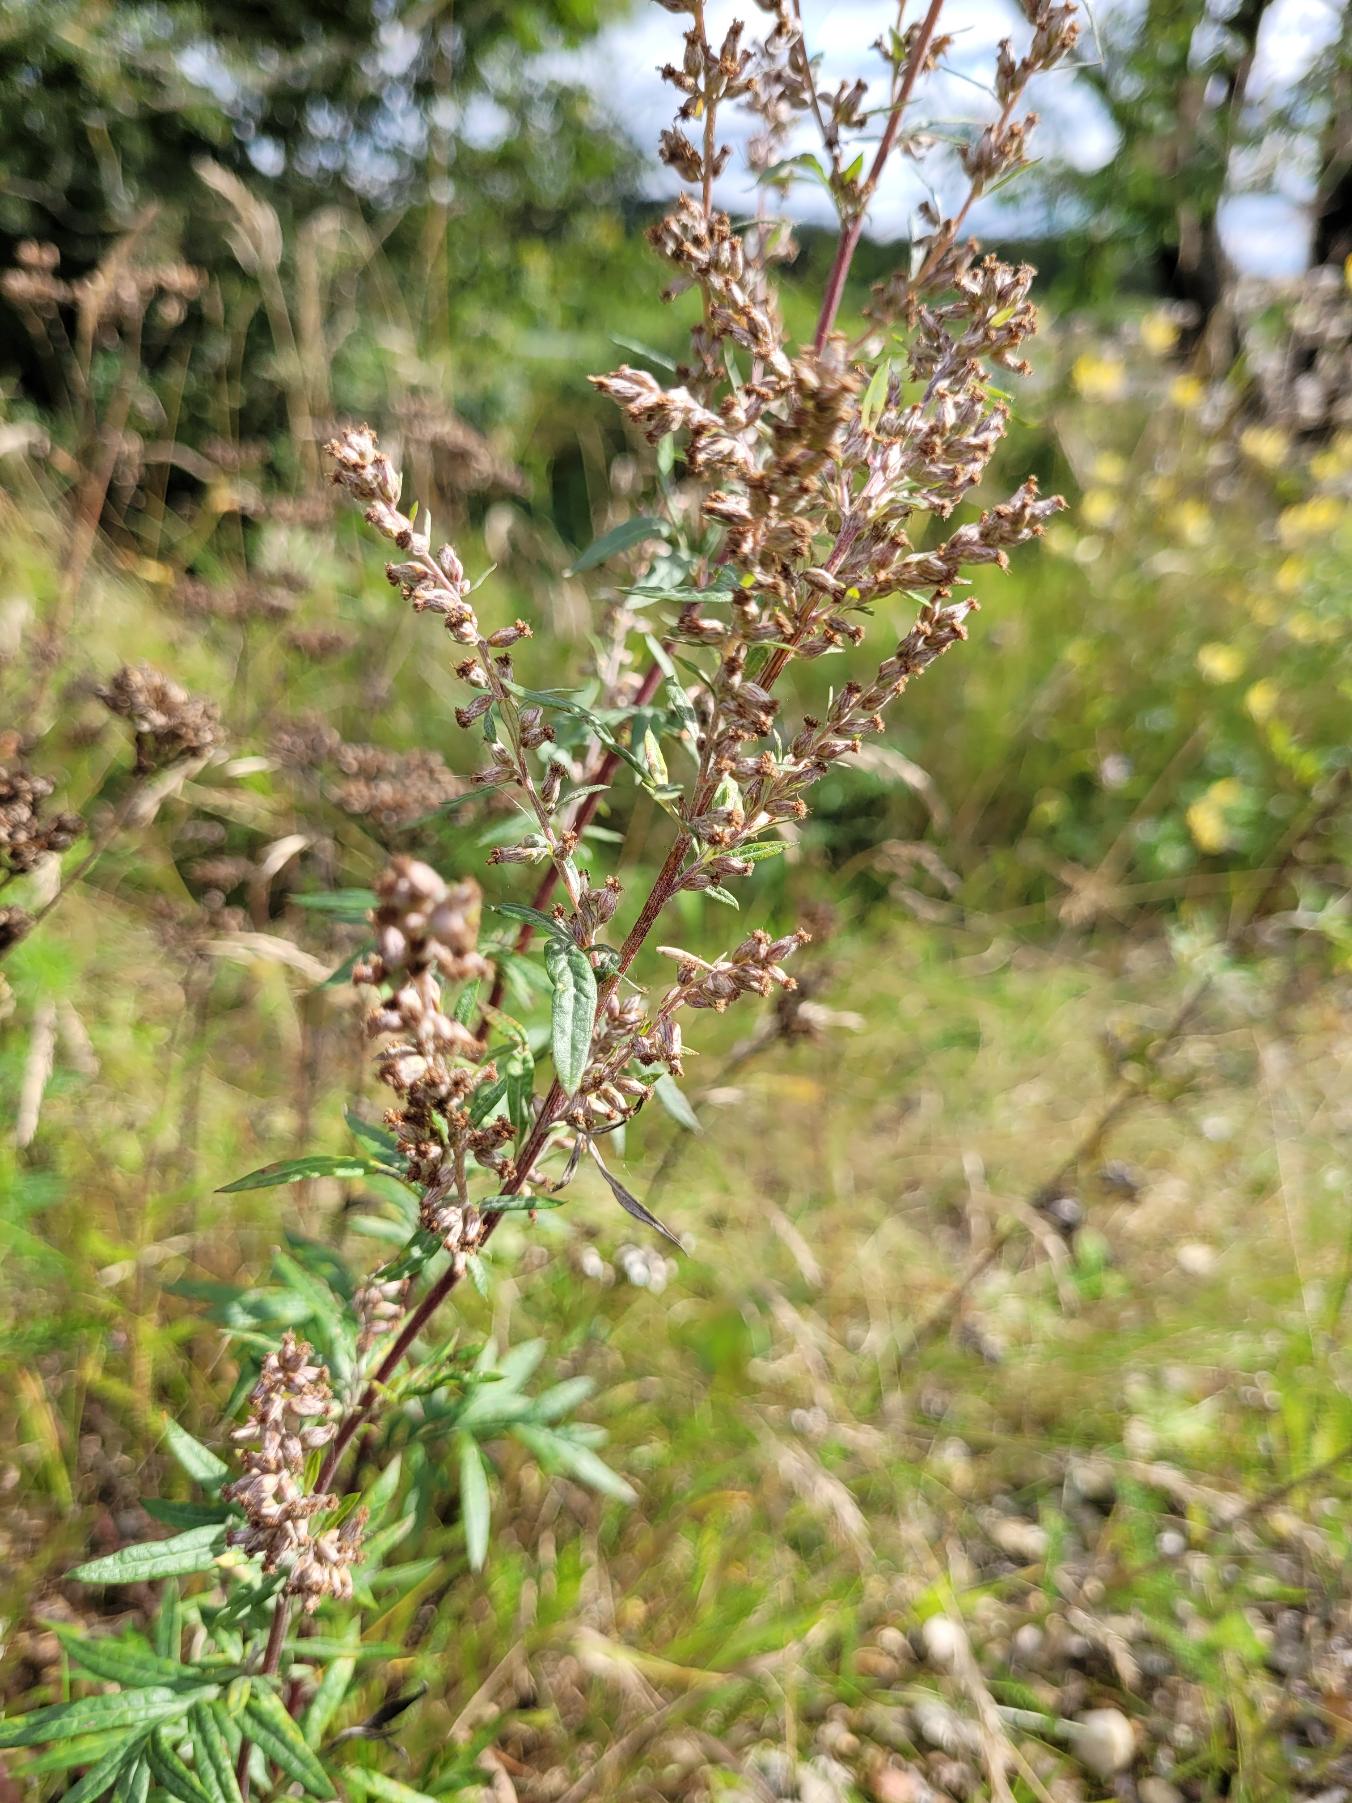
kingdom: Plantae
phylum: Tracheophyta
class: Magnoliopsida
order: Asterales
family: Asteraceae
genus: Artemisia
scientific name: Artemisia vulgaris
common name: Grå-bynke
